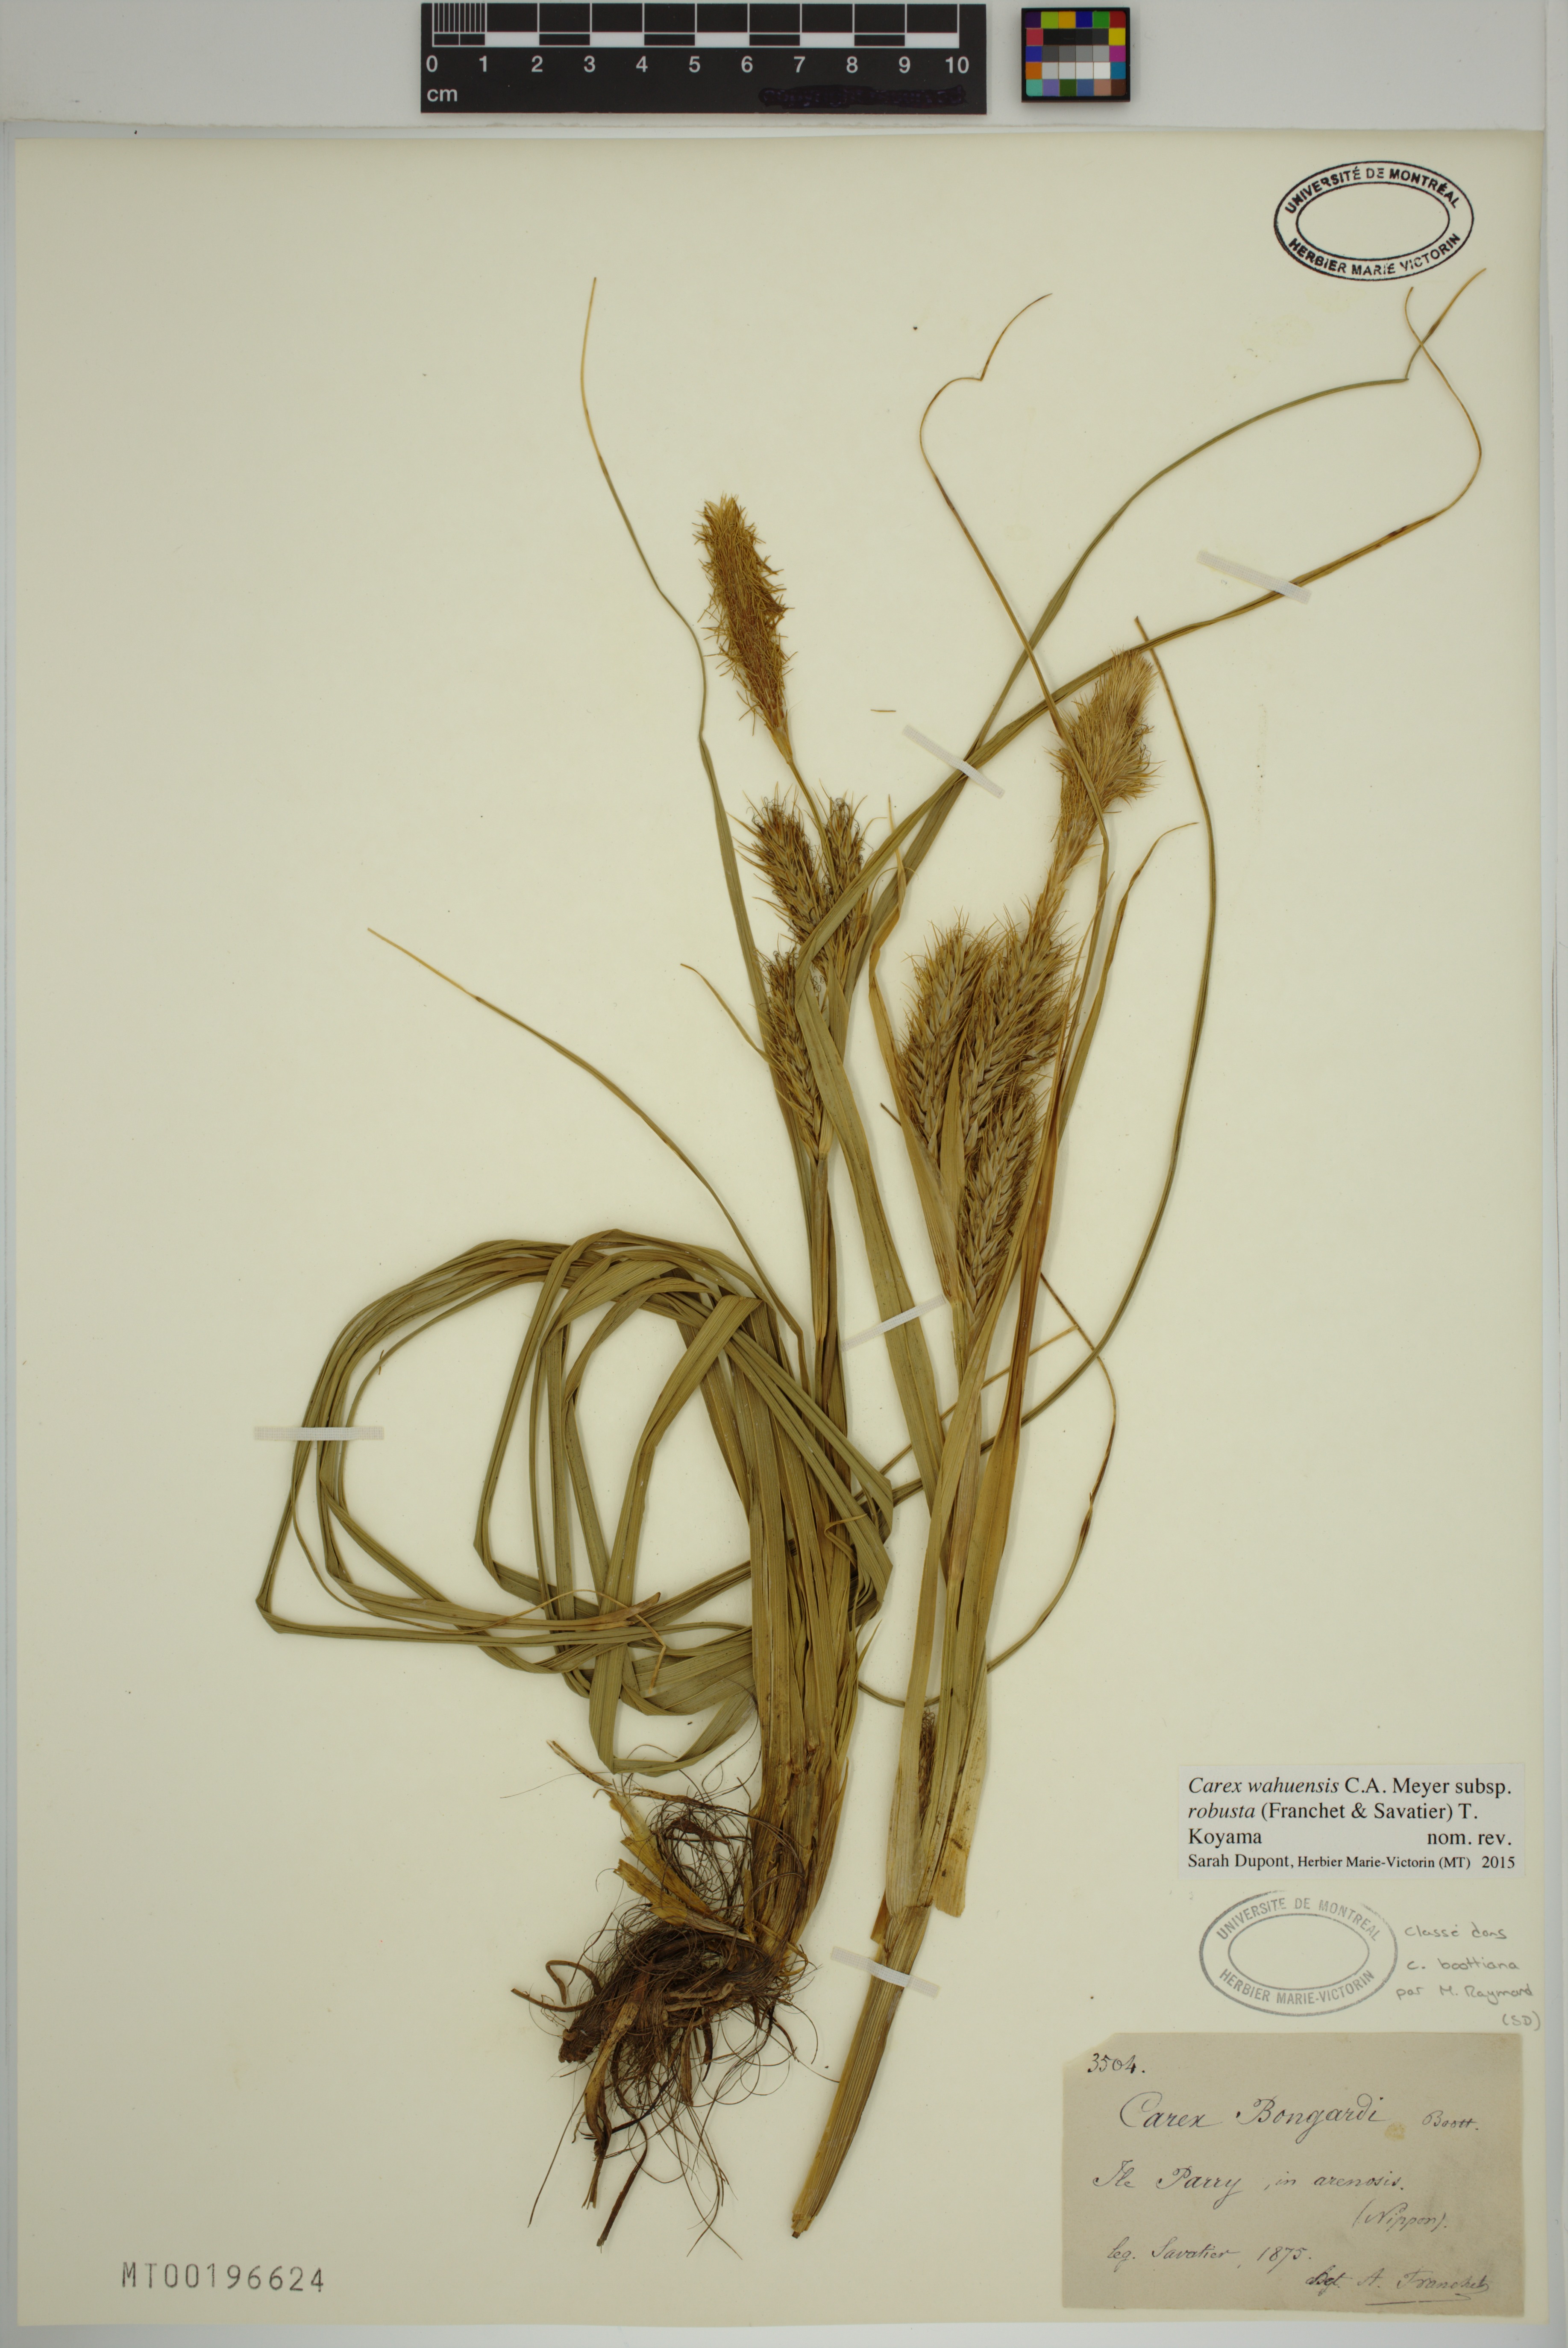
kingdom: Plantae
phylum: Tracheophyta
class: Liliopsida
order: Poales
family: Cyperaceae
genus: Carex
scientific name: Carex wahuensis
